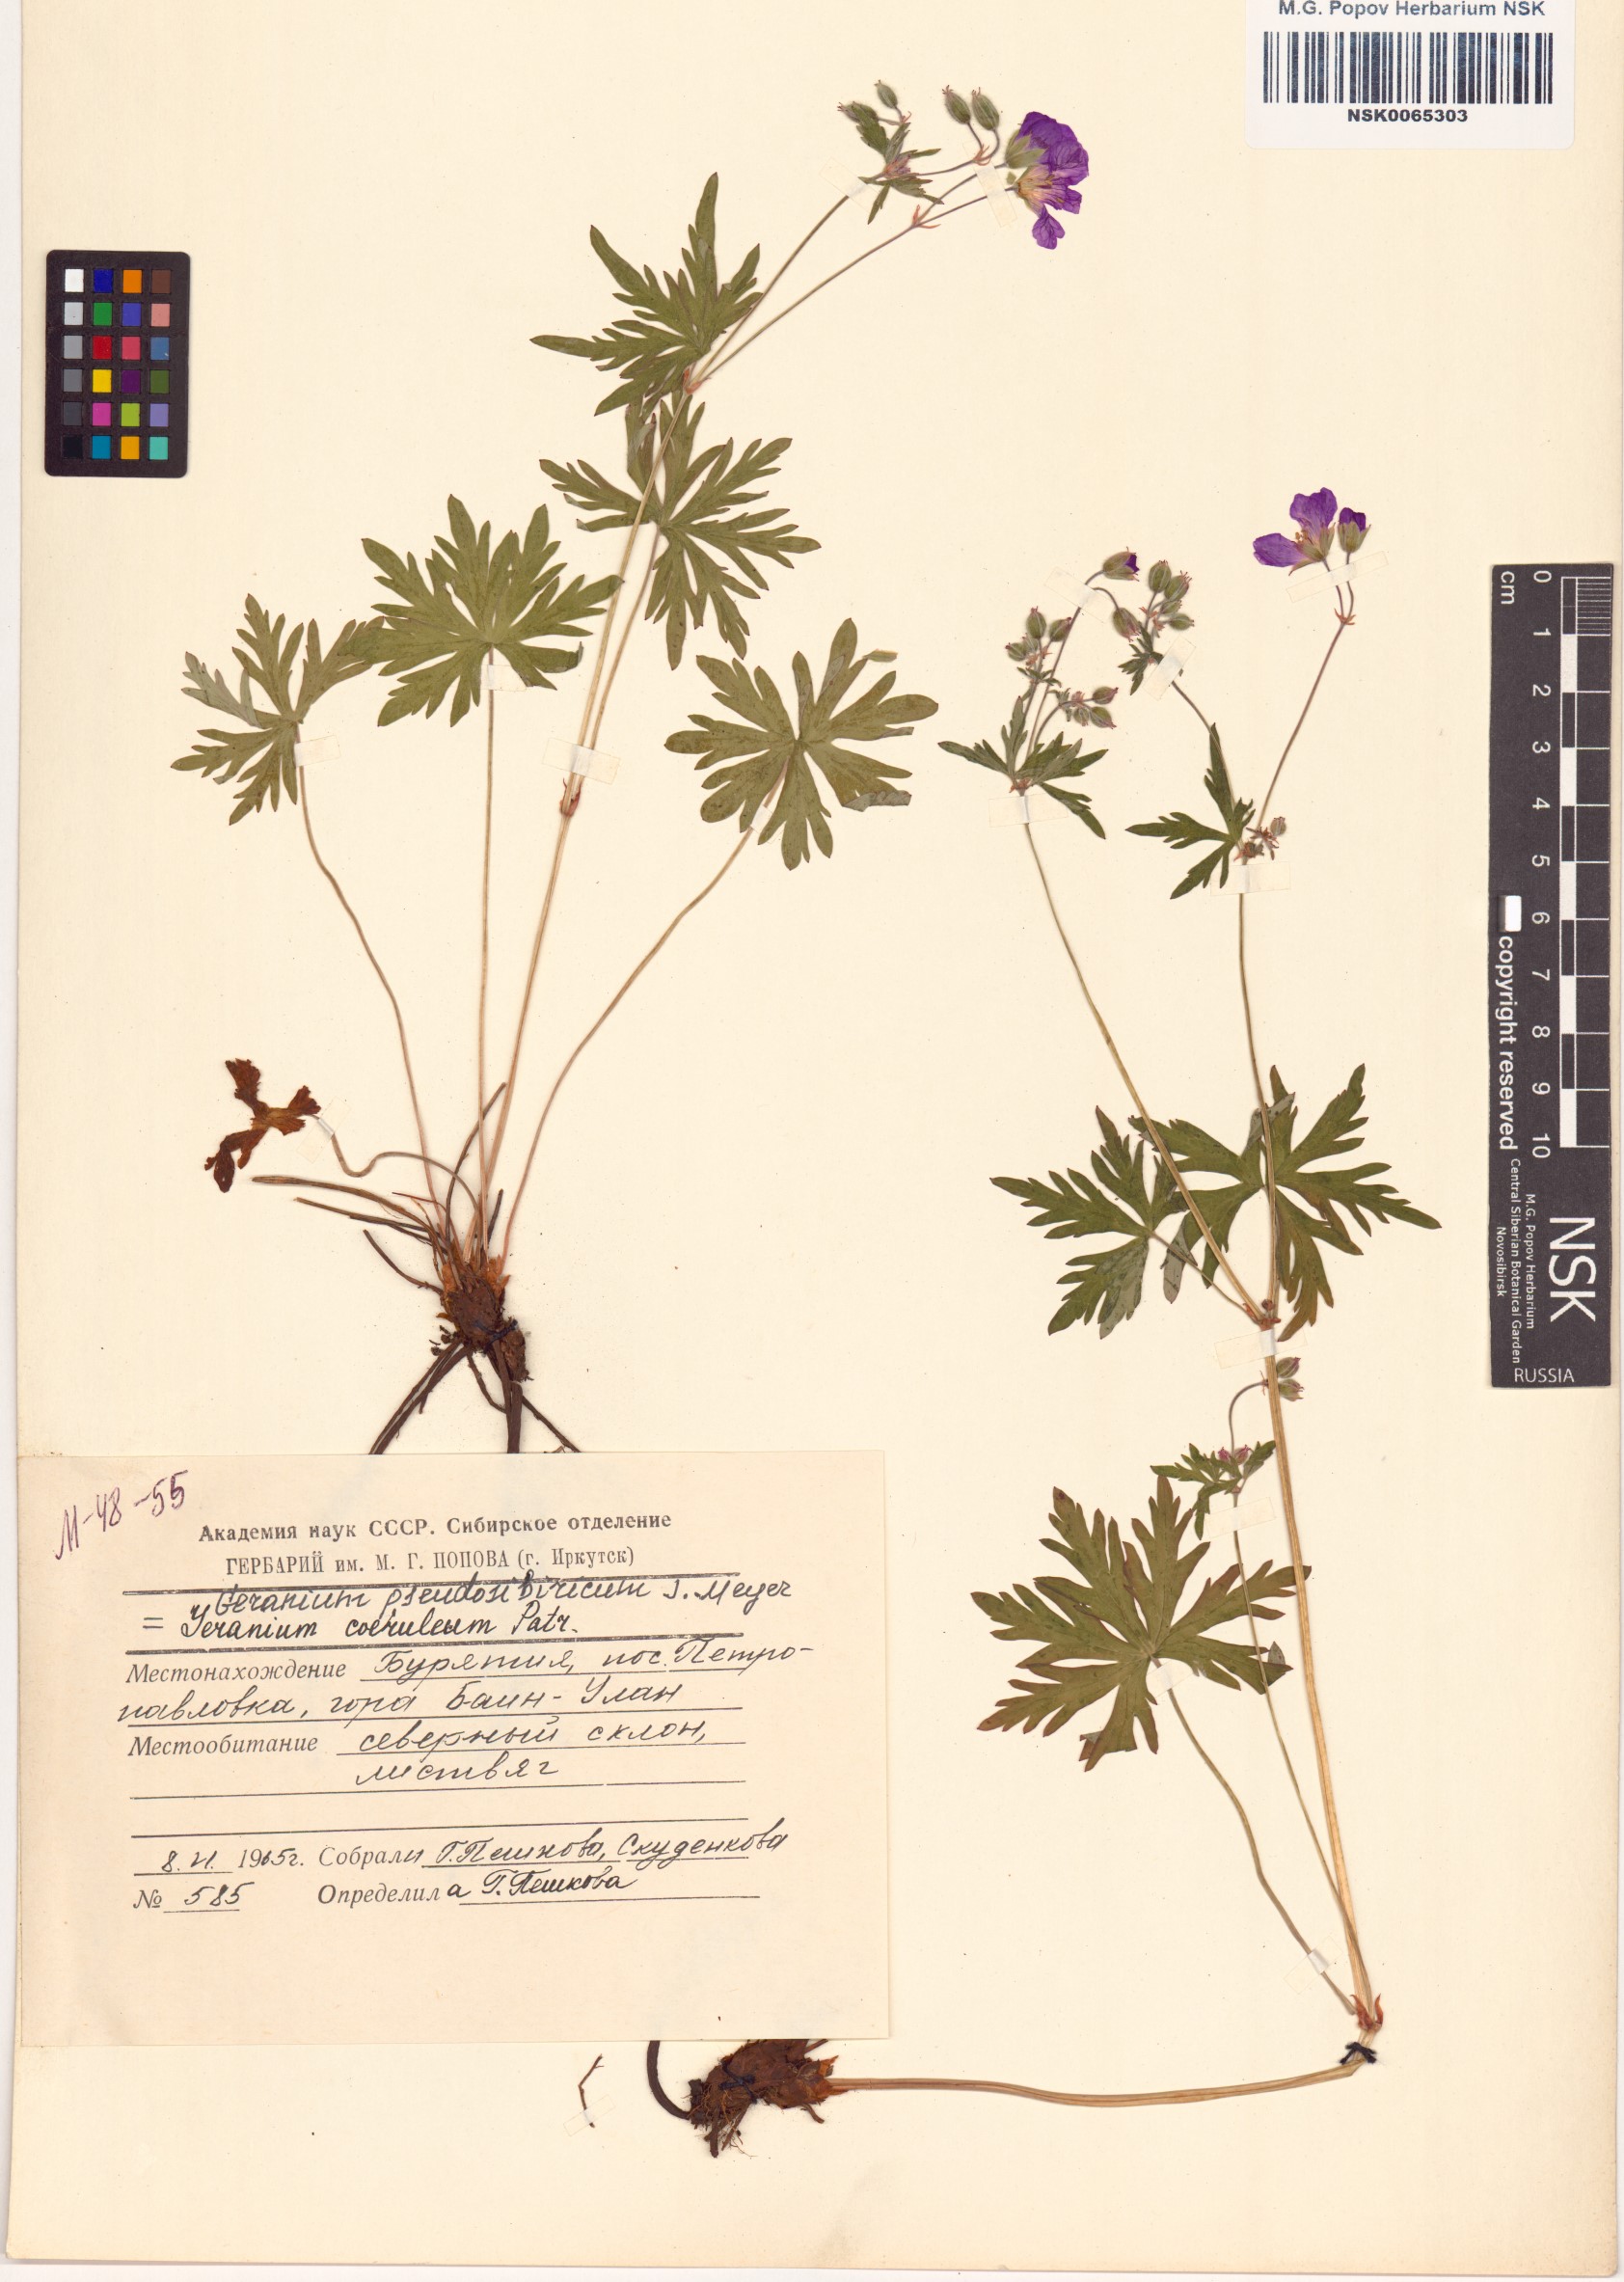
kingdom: Plantae
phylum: Tracheophyta
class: Magnoliopsida
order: Geraniales
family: Geraniaceae
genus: Geranium
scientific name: Geranium pseudosibiricum
